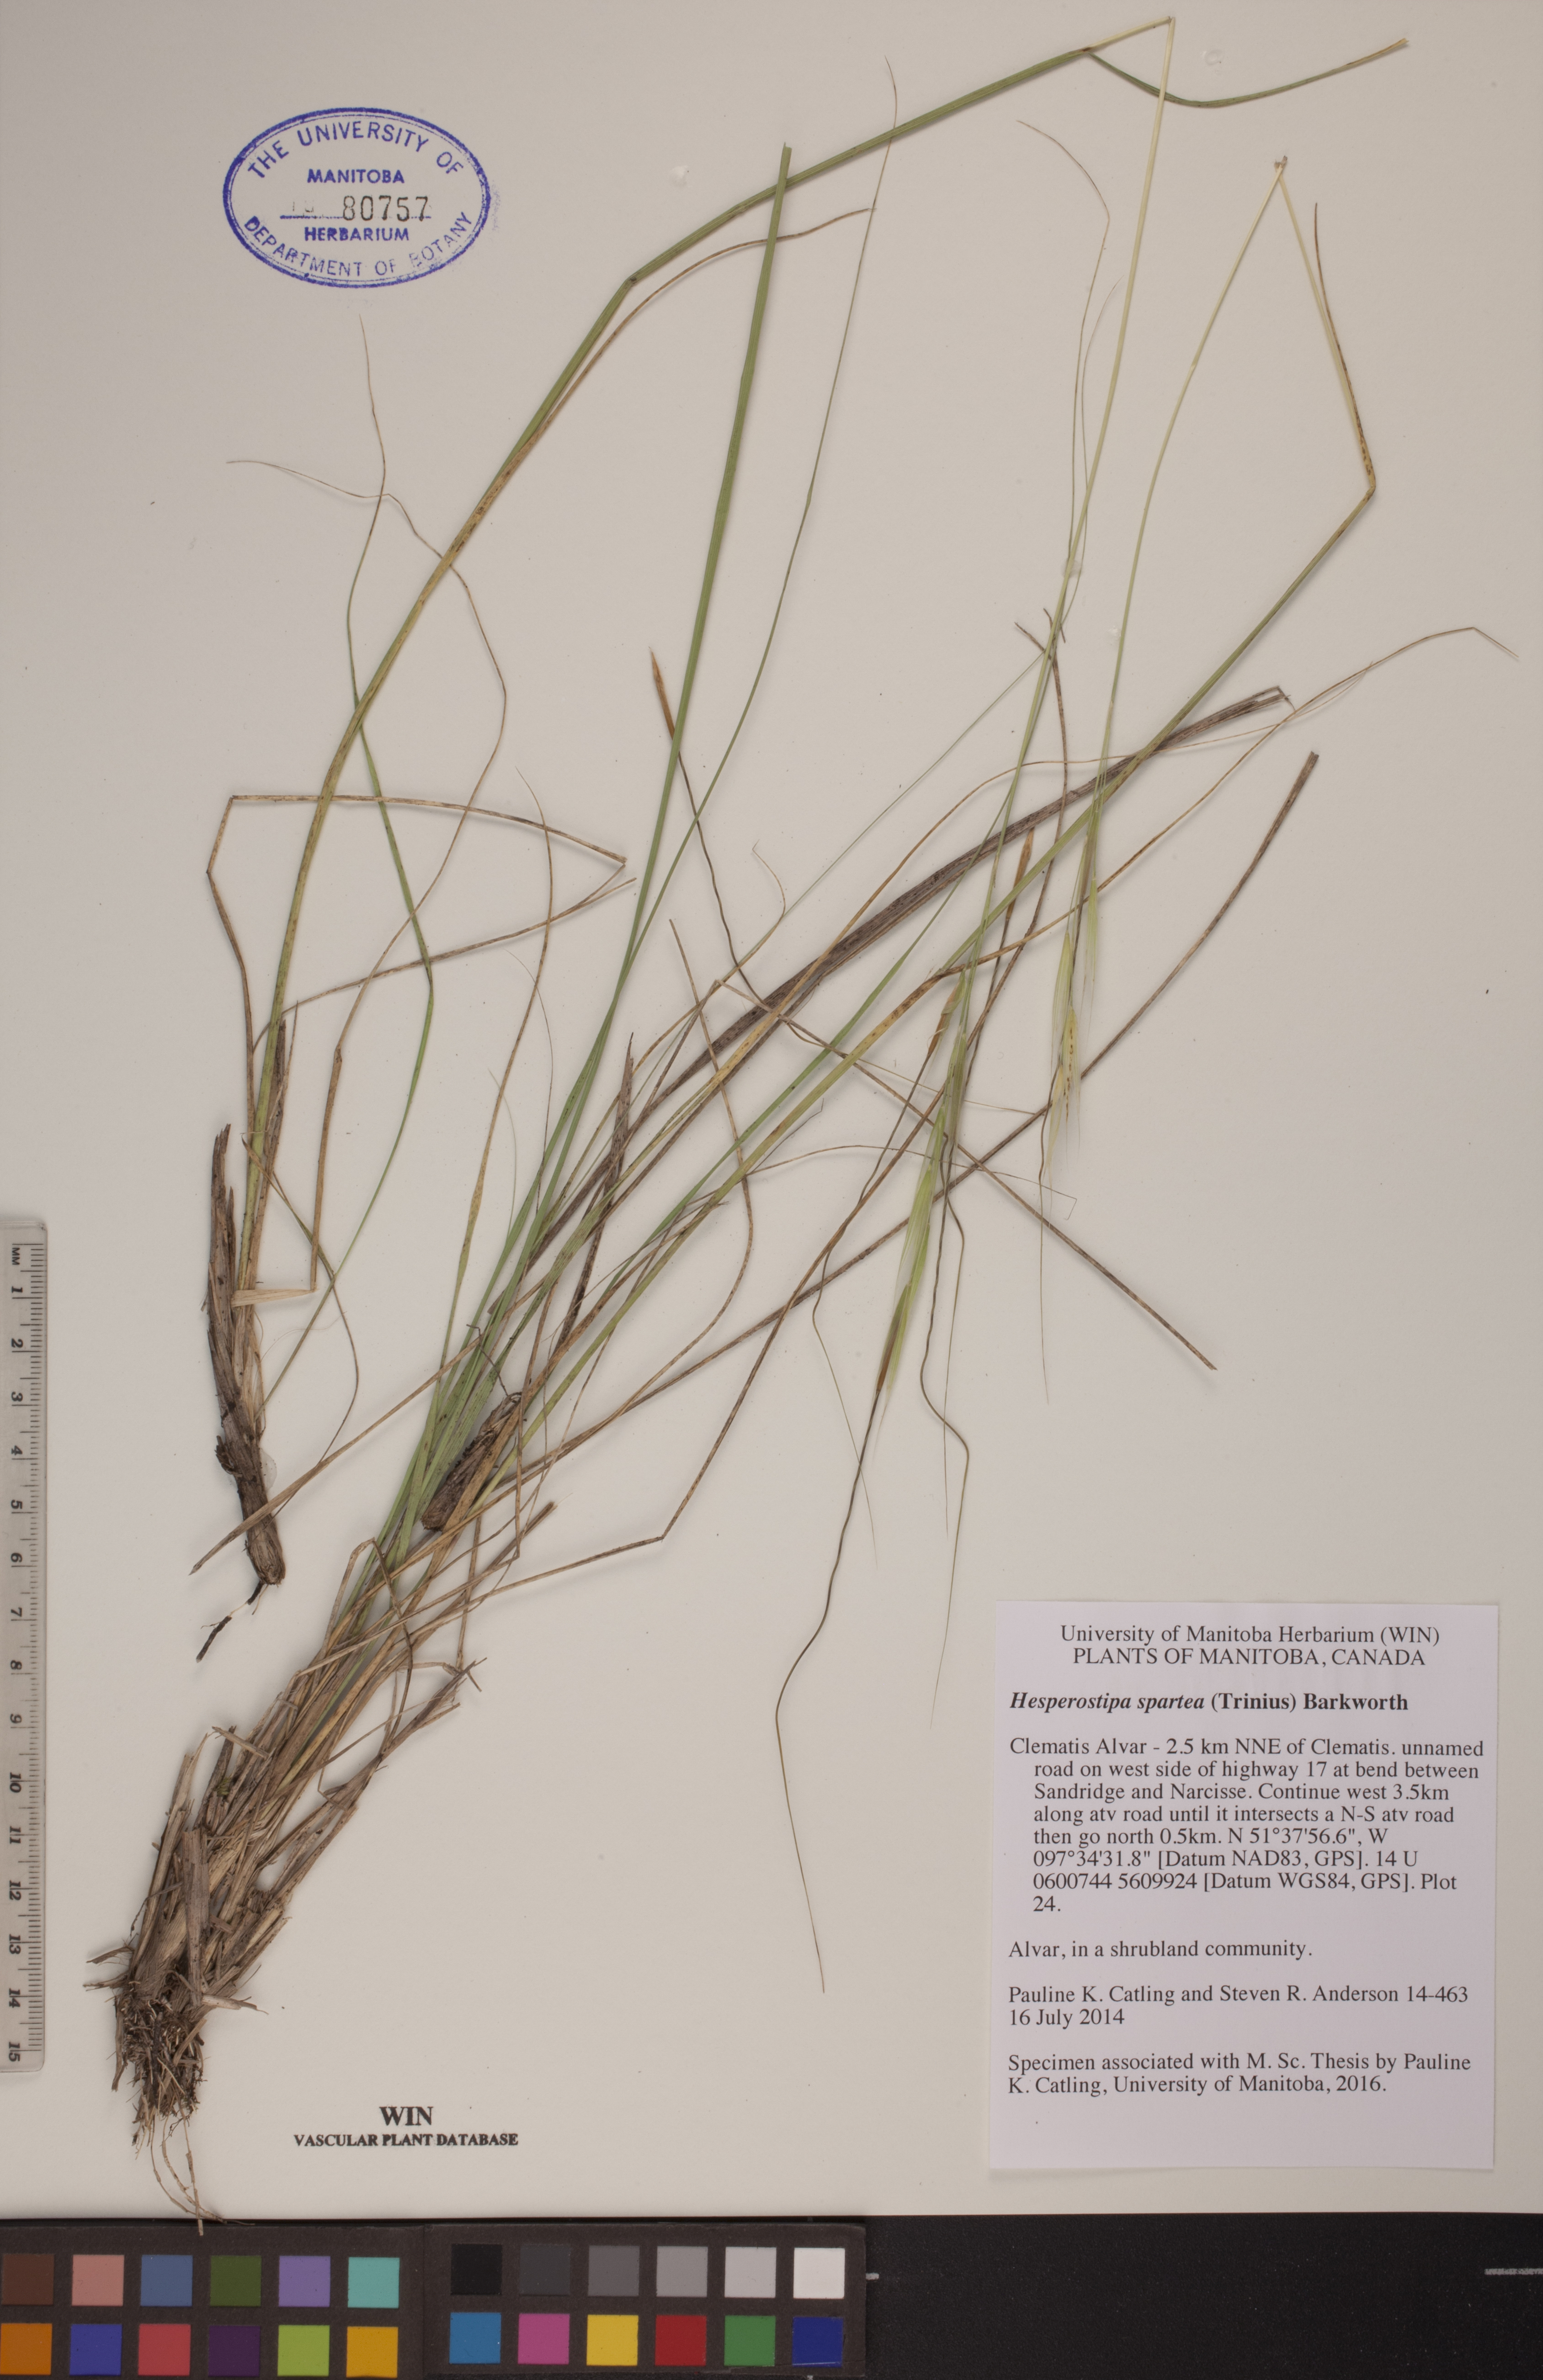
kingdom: Plantae
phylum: Tracheophyta
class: Liliopsida
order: Poales
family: Poaceae
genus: Hesperostipa
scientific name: Hesperostipa spartea
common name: Porcupine grass
